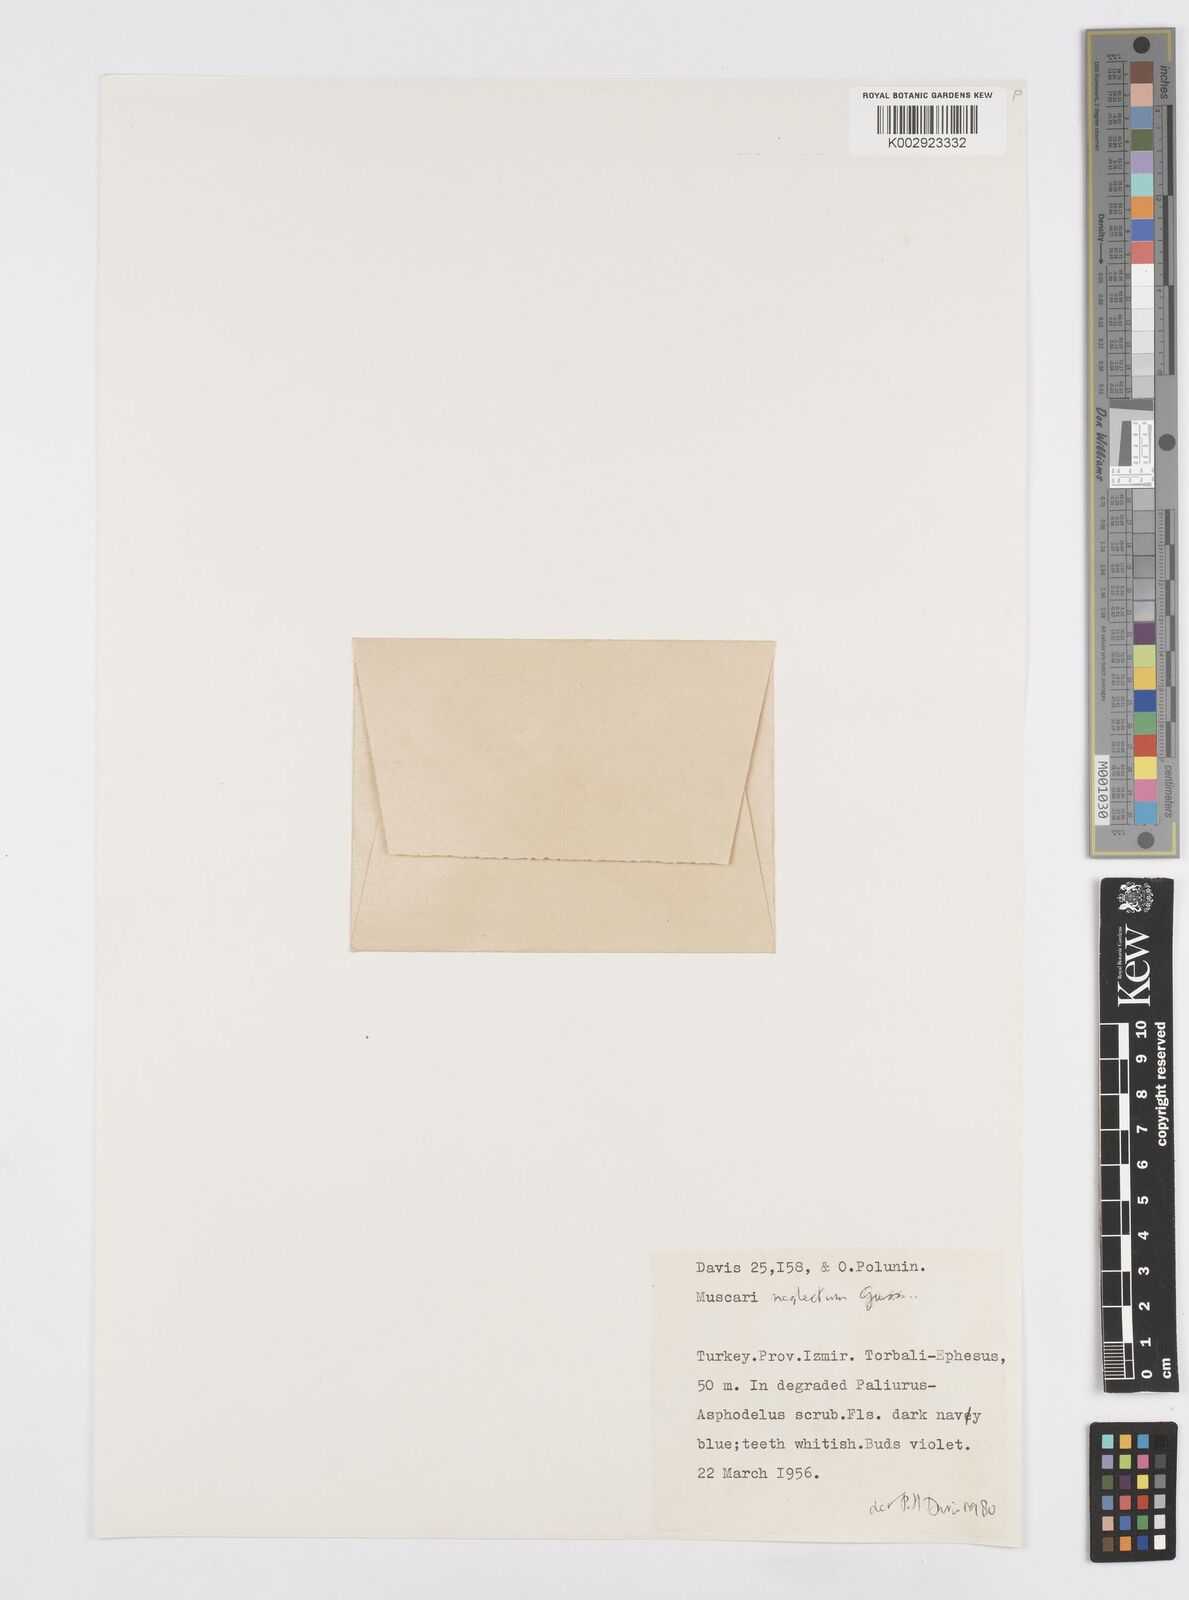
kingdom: Plantae
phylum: Tracheophyta
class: Liliopsida
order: Asparagales
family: Asparagaceae
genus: Muscari
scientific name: Muscari neglectum
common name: Grape-hyacinth
